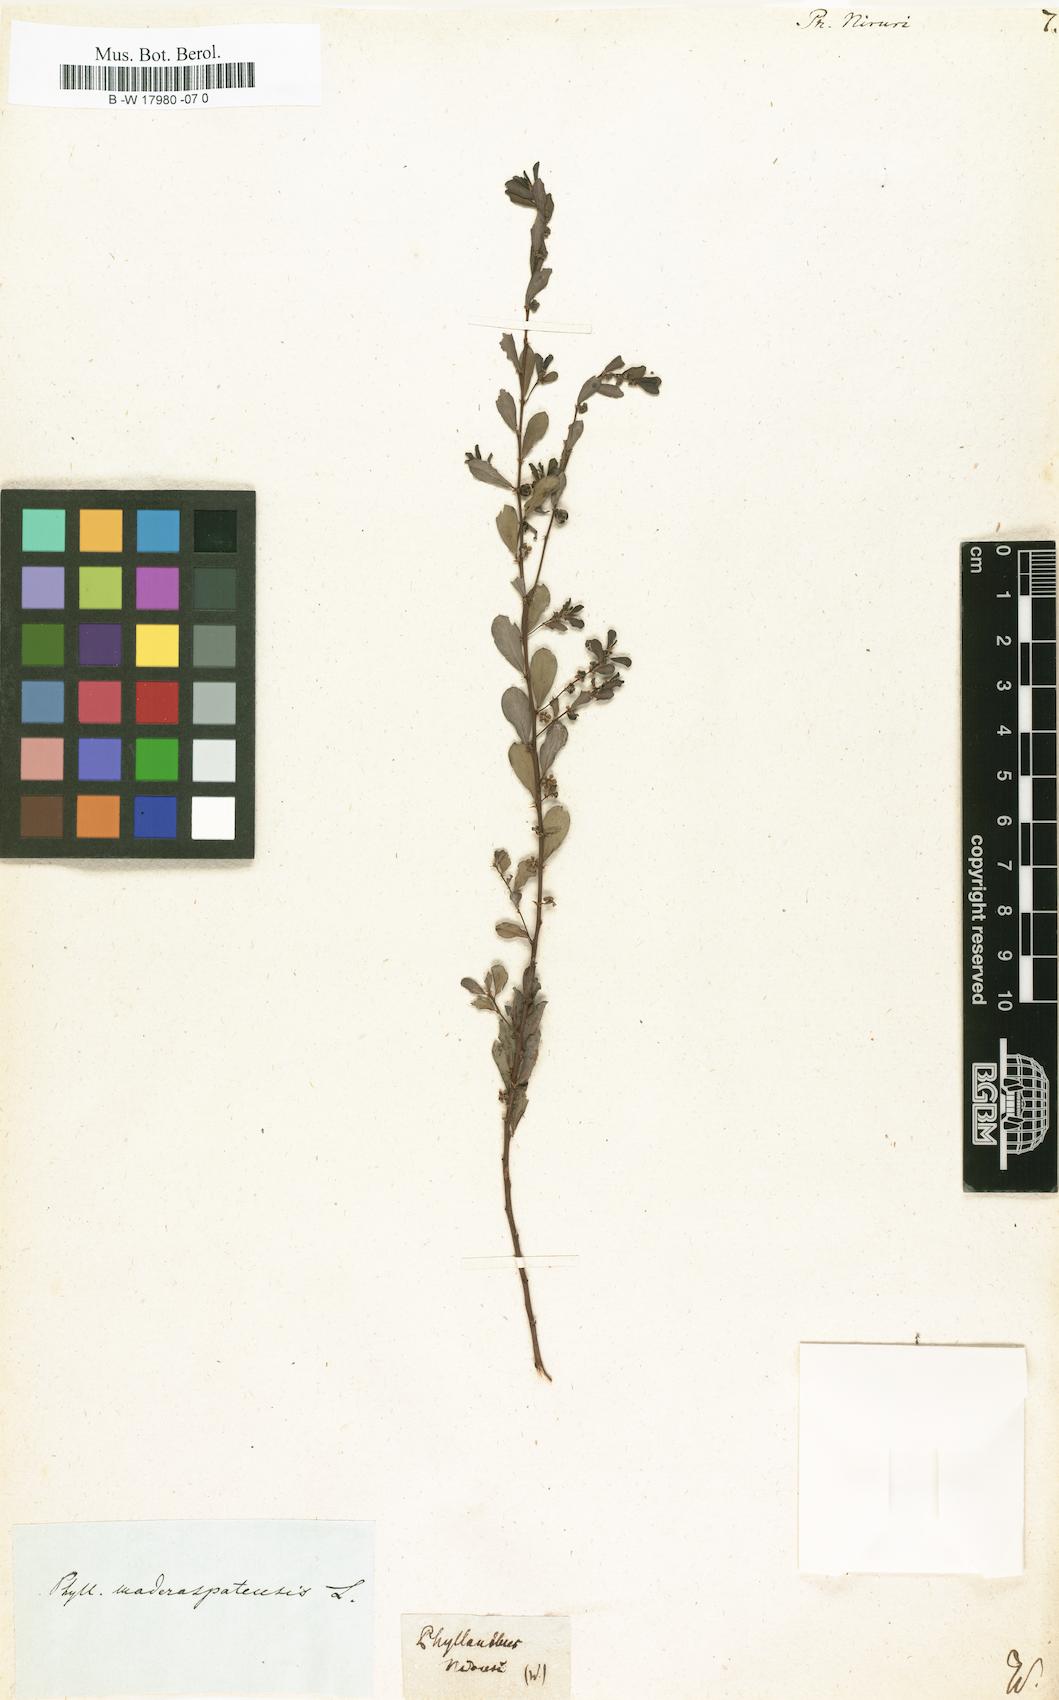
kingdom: Plantae
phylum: Tracheophyta
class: Magnoliopsida
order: Malpighiales
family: Phyllanthaceae
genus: Phyllanthus
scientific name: Phyllanthus niruri
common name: Niruri
